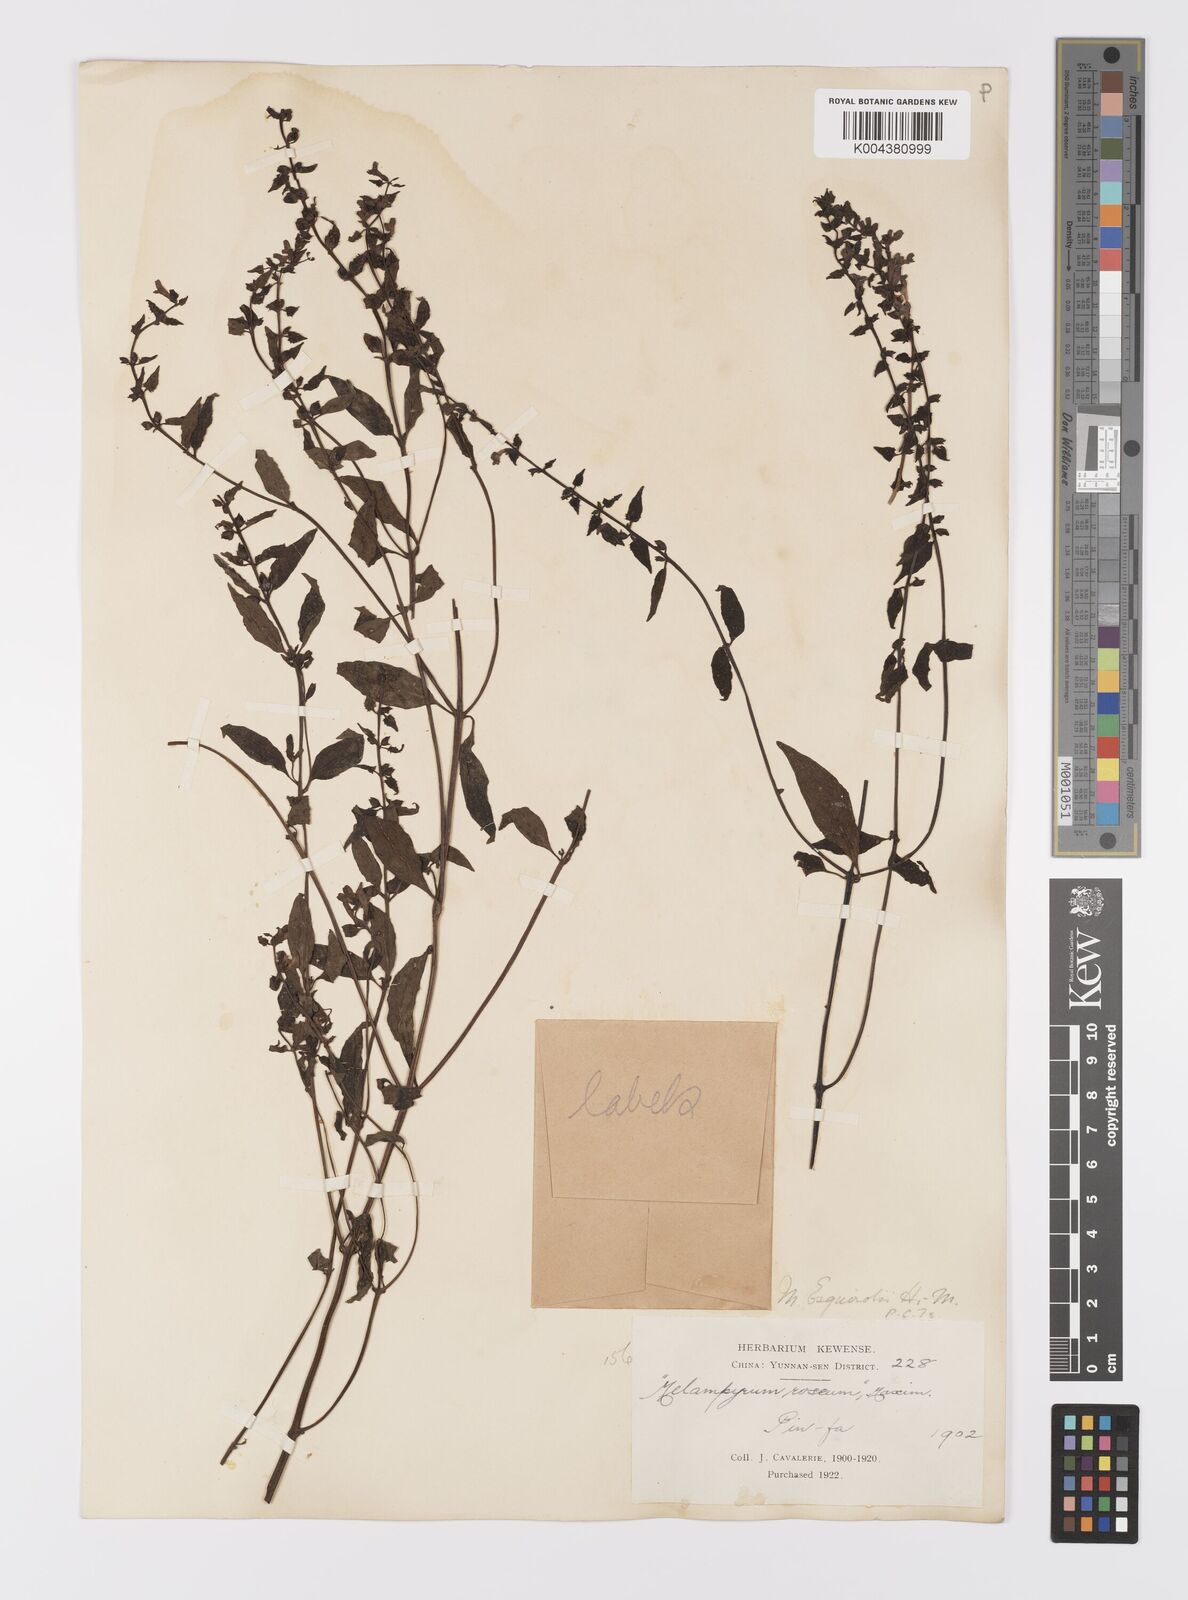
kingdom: Plantae
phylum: Tracheophyta
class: Magnoliopsida
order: Lamiales
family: Orobanchaceae
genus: Melampyrum
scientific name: Melampyrum roseum
